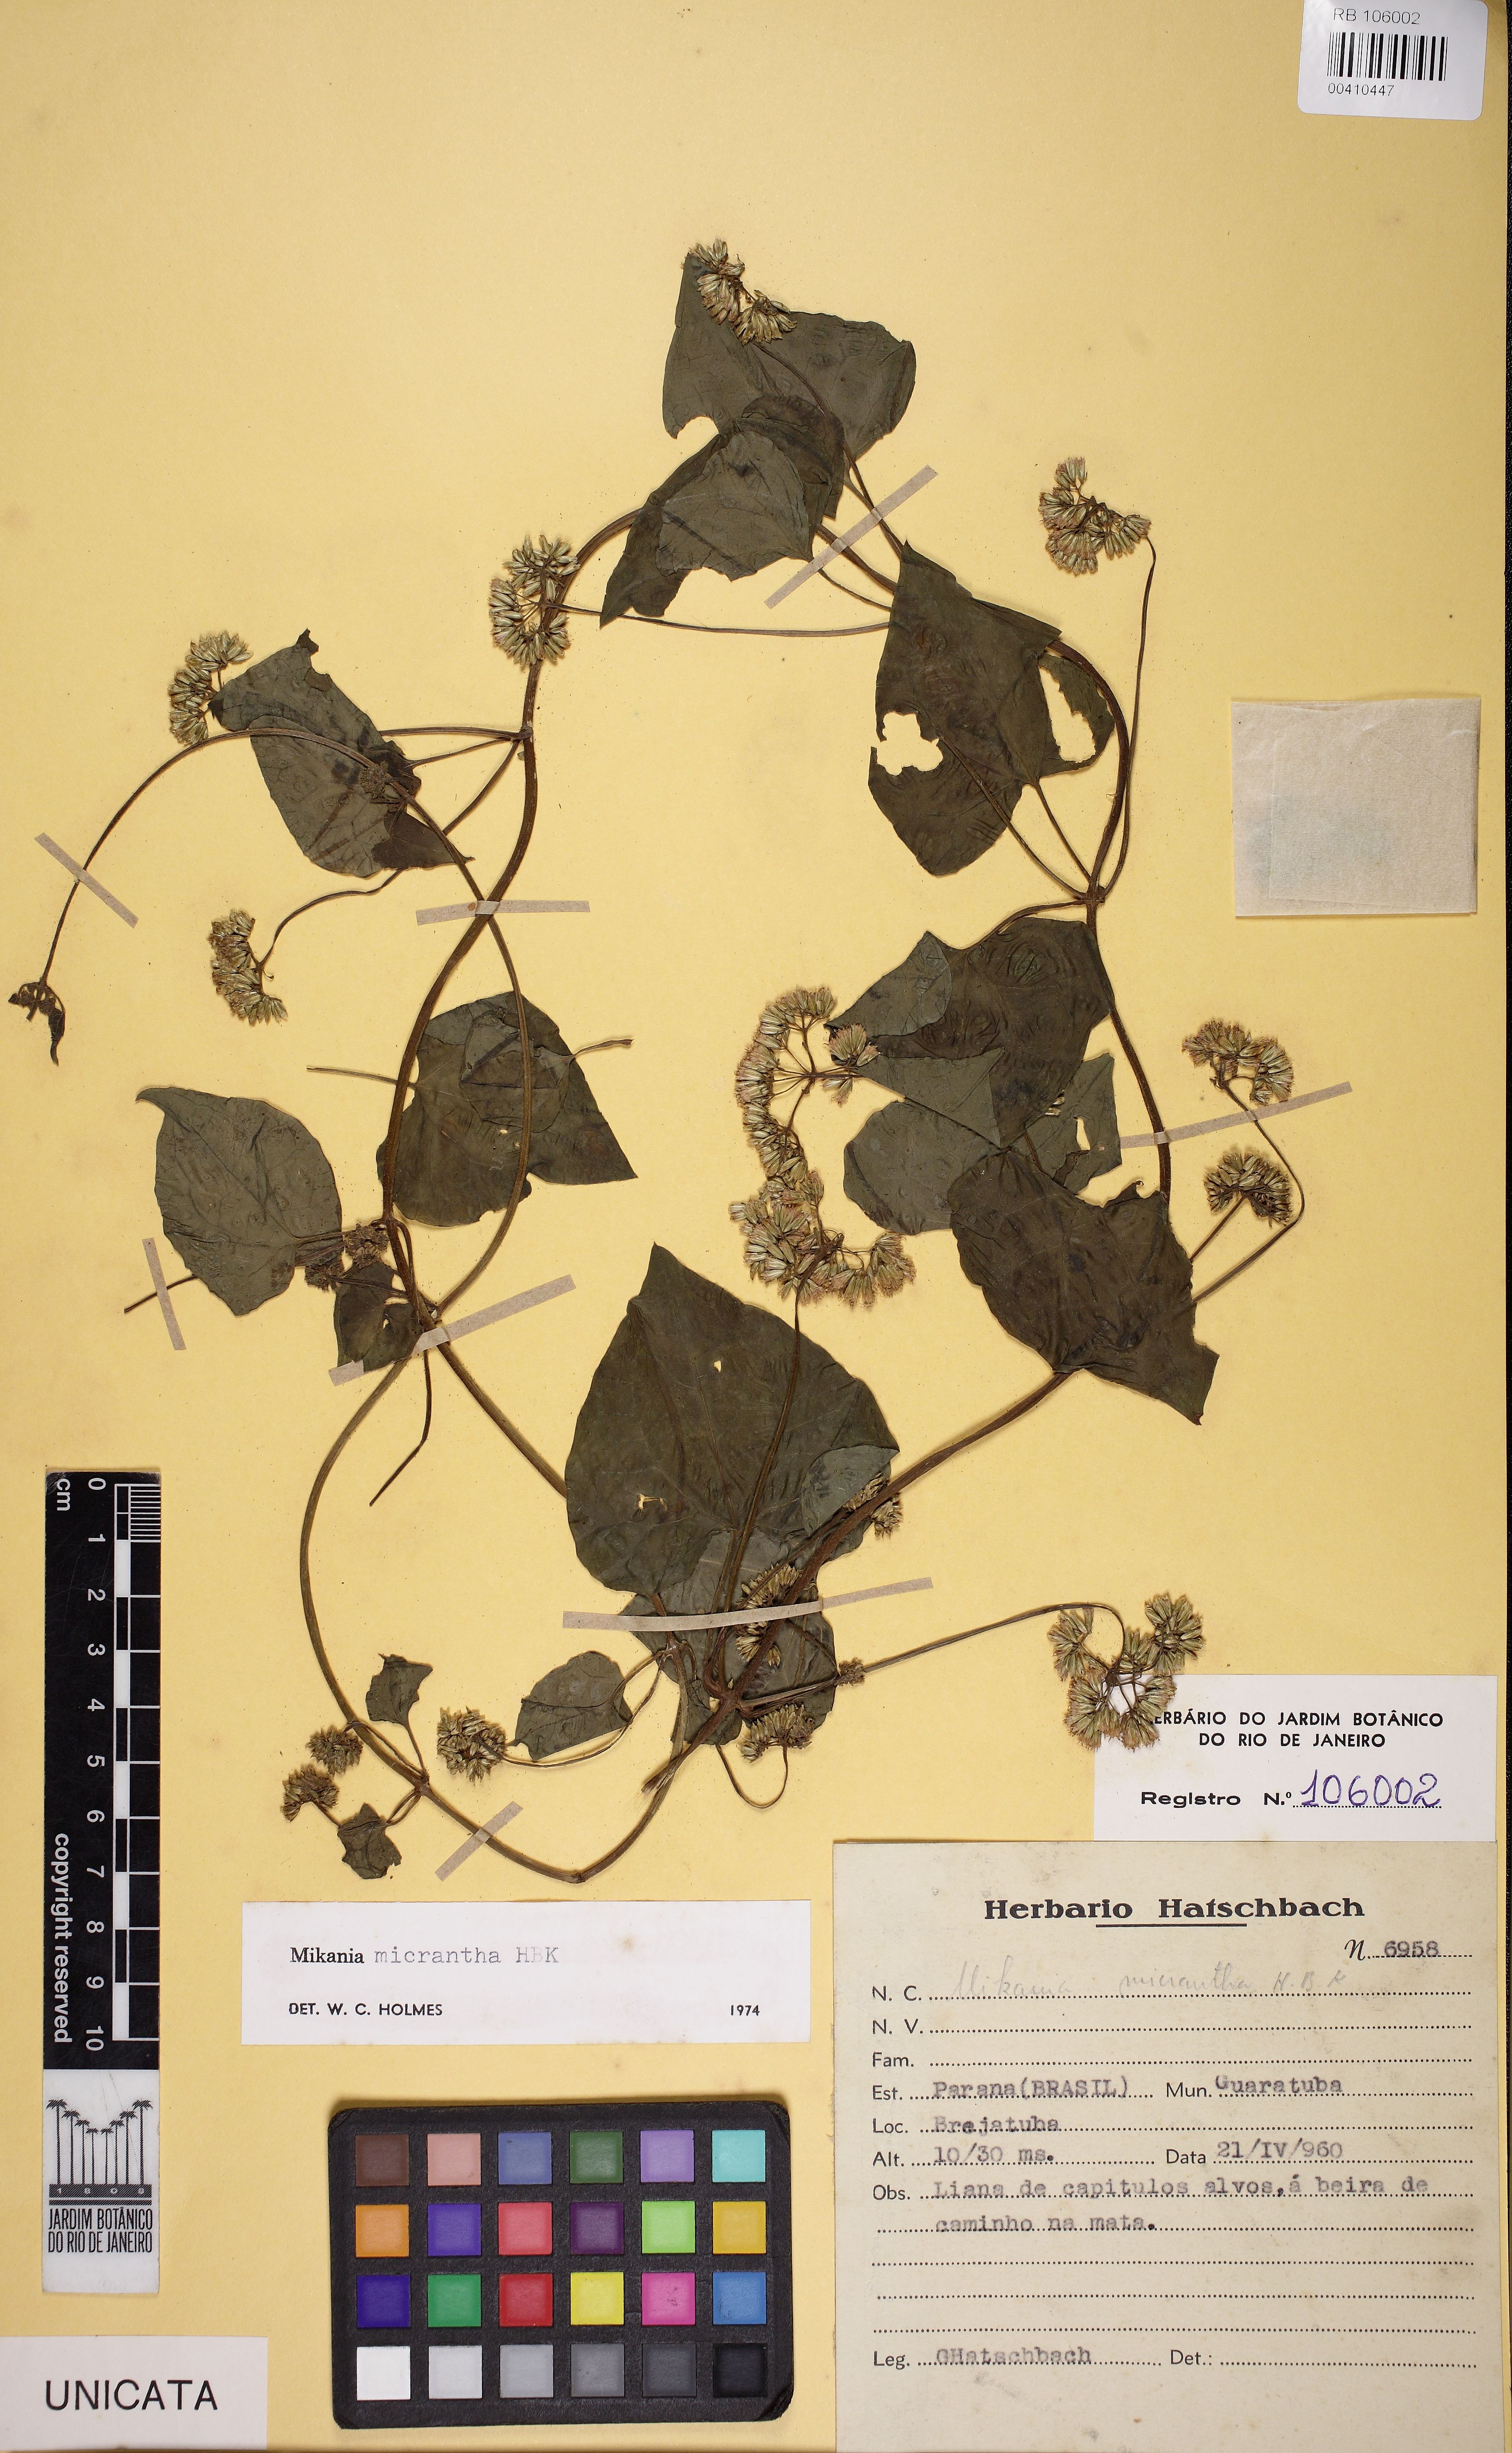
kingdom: Plantae
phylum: Tracheophyta
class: Magnoliopsida
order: Asterales
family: Asteraceae
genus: Mikania
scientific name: Mikania micrantha
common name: Mile-a-minute
